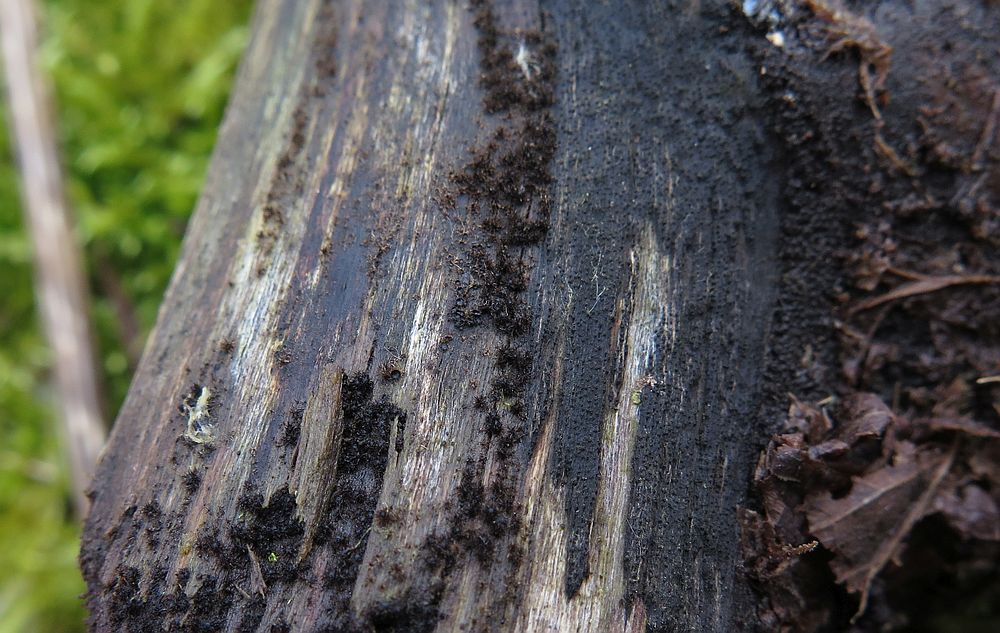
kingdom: Fungi
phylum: Ascomycota
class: Sordariomycetes
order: Sordariales
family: Helminthosphaeriaceae
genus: Echinosphaeria
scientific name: Echinosphaeria canescens
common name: brun børstekerne
